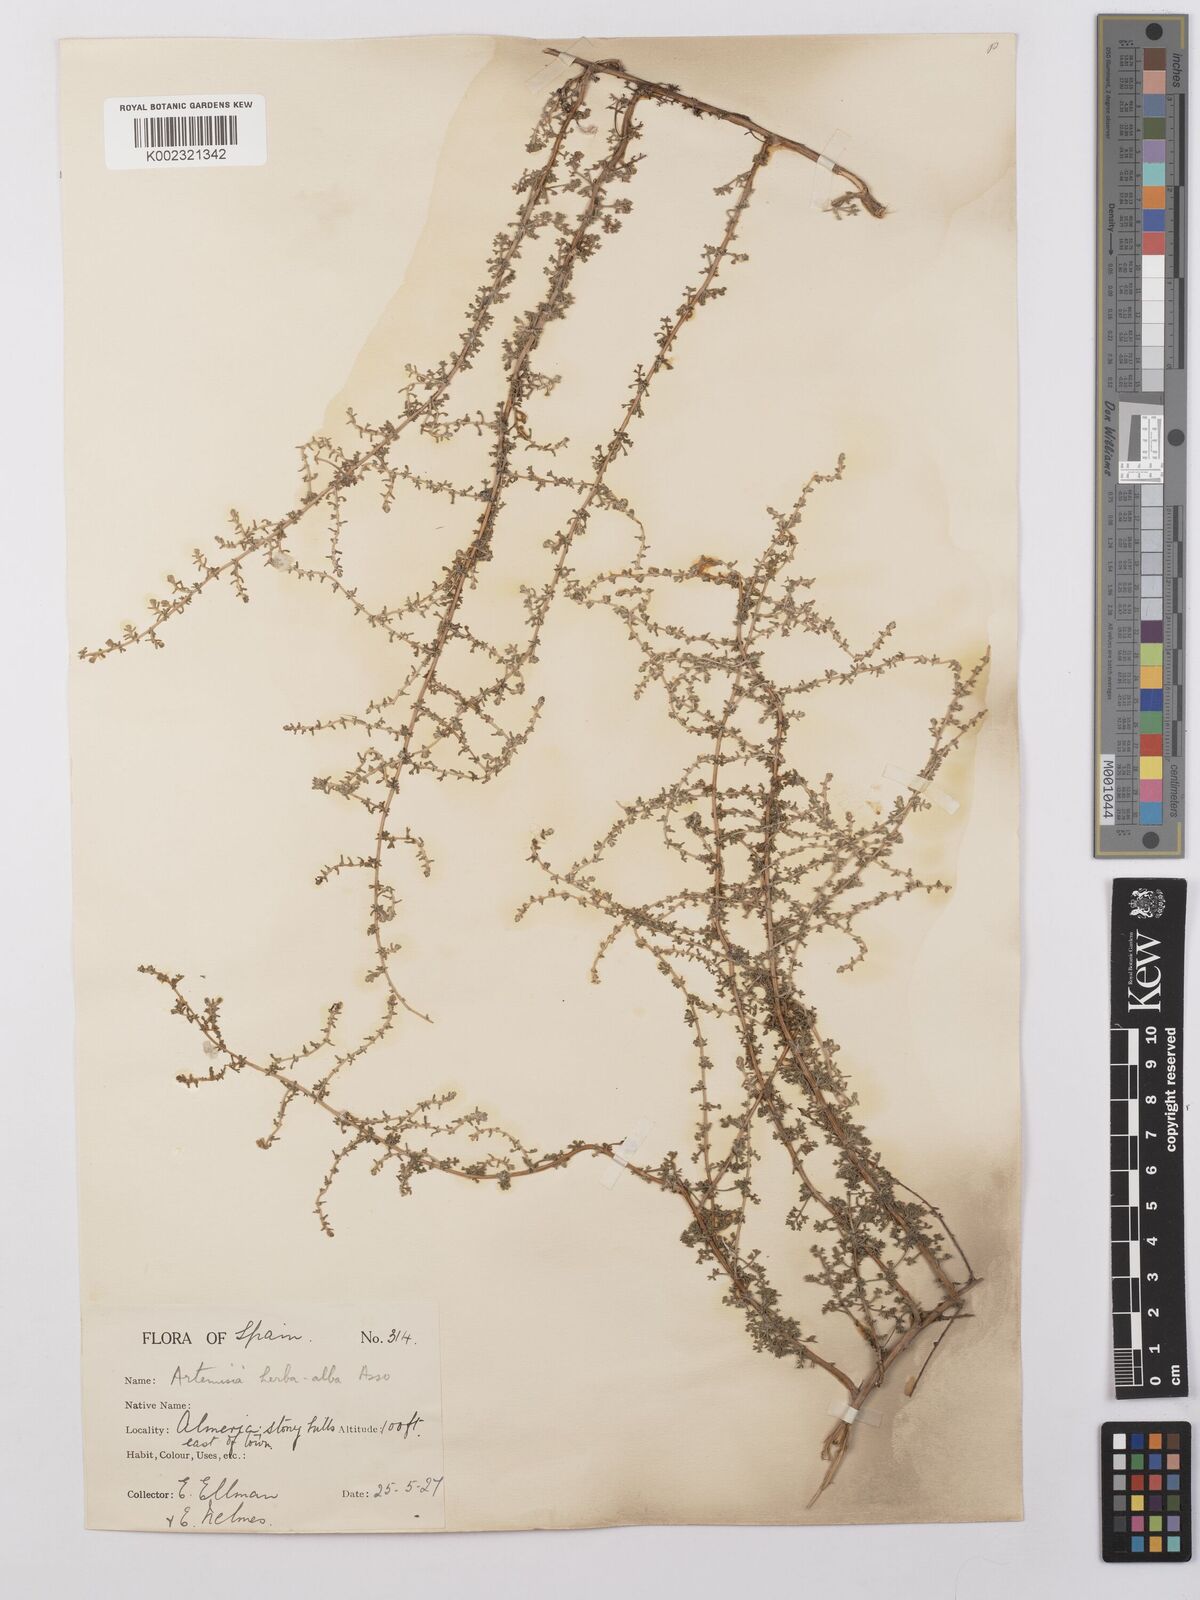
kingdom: Plantae
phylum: Tracheophyta
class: Magnoliopsida
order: Asterales
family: Asteraceae
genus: Artemisia
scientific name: Artemisia herba-alba
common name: White wormwood
